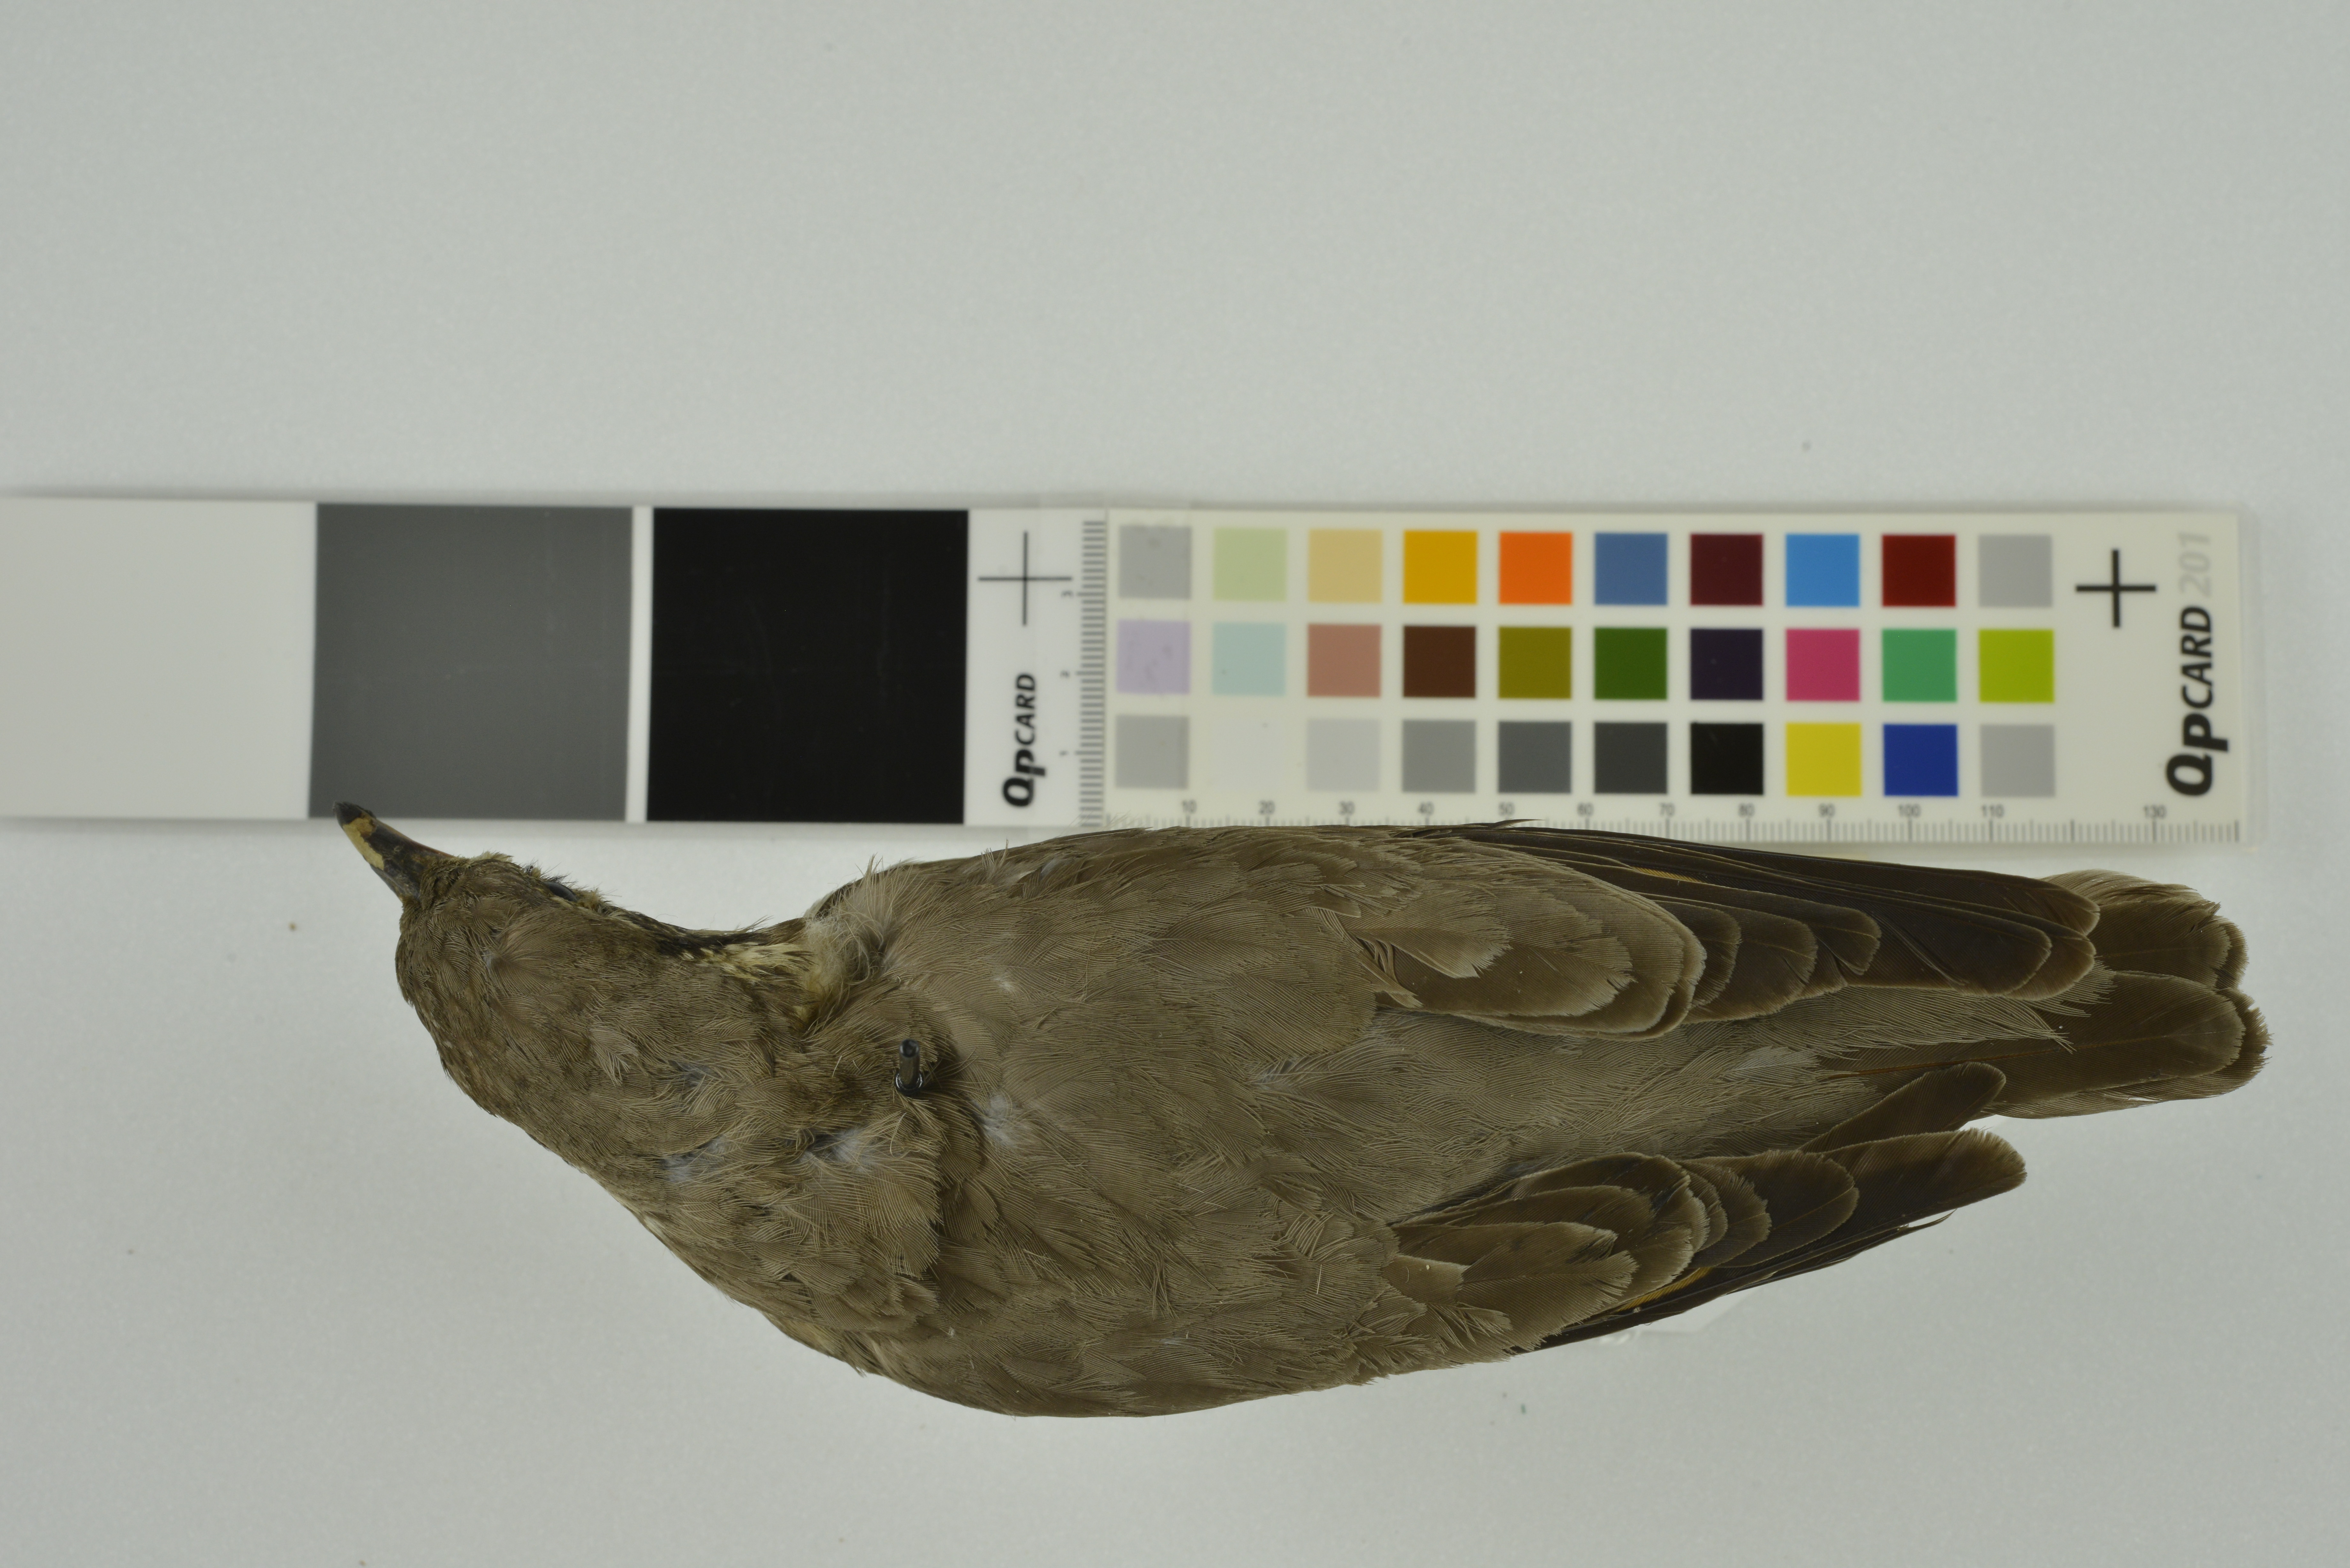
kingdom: Animalia
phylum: Chordata
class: Aves
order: Passeriformes
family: Turdidae
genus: Psophocichla
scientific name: Psophocichla litsitsirupa
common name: Groundscraper thrush
